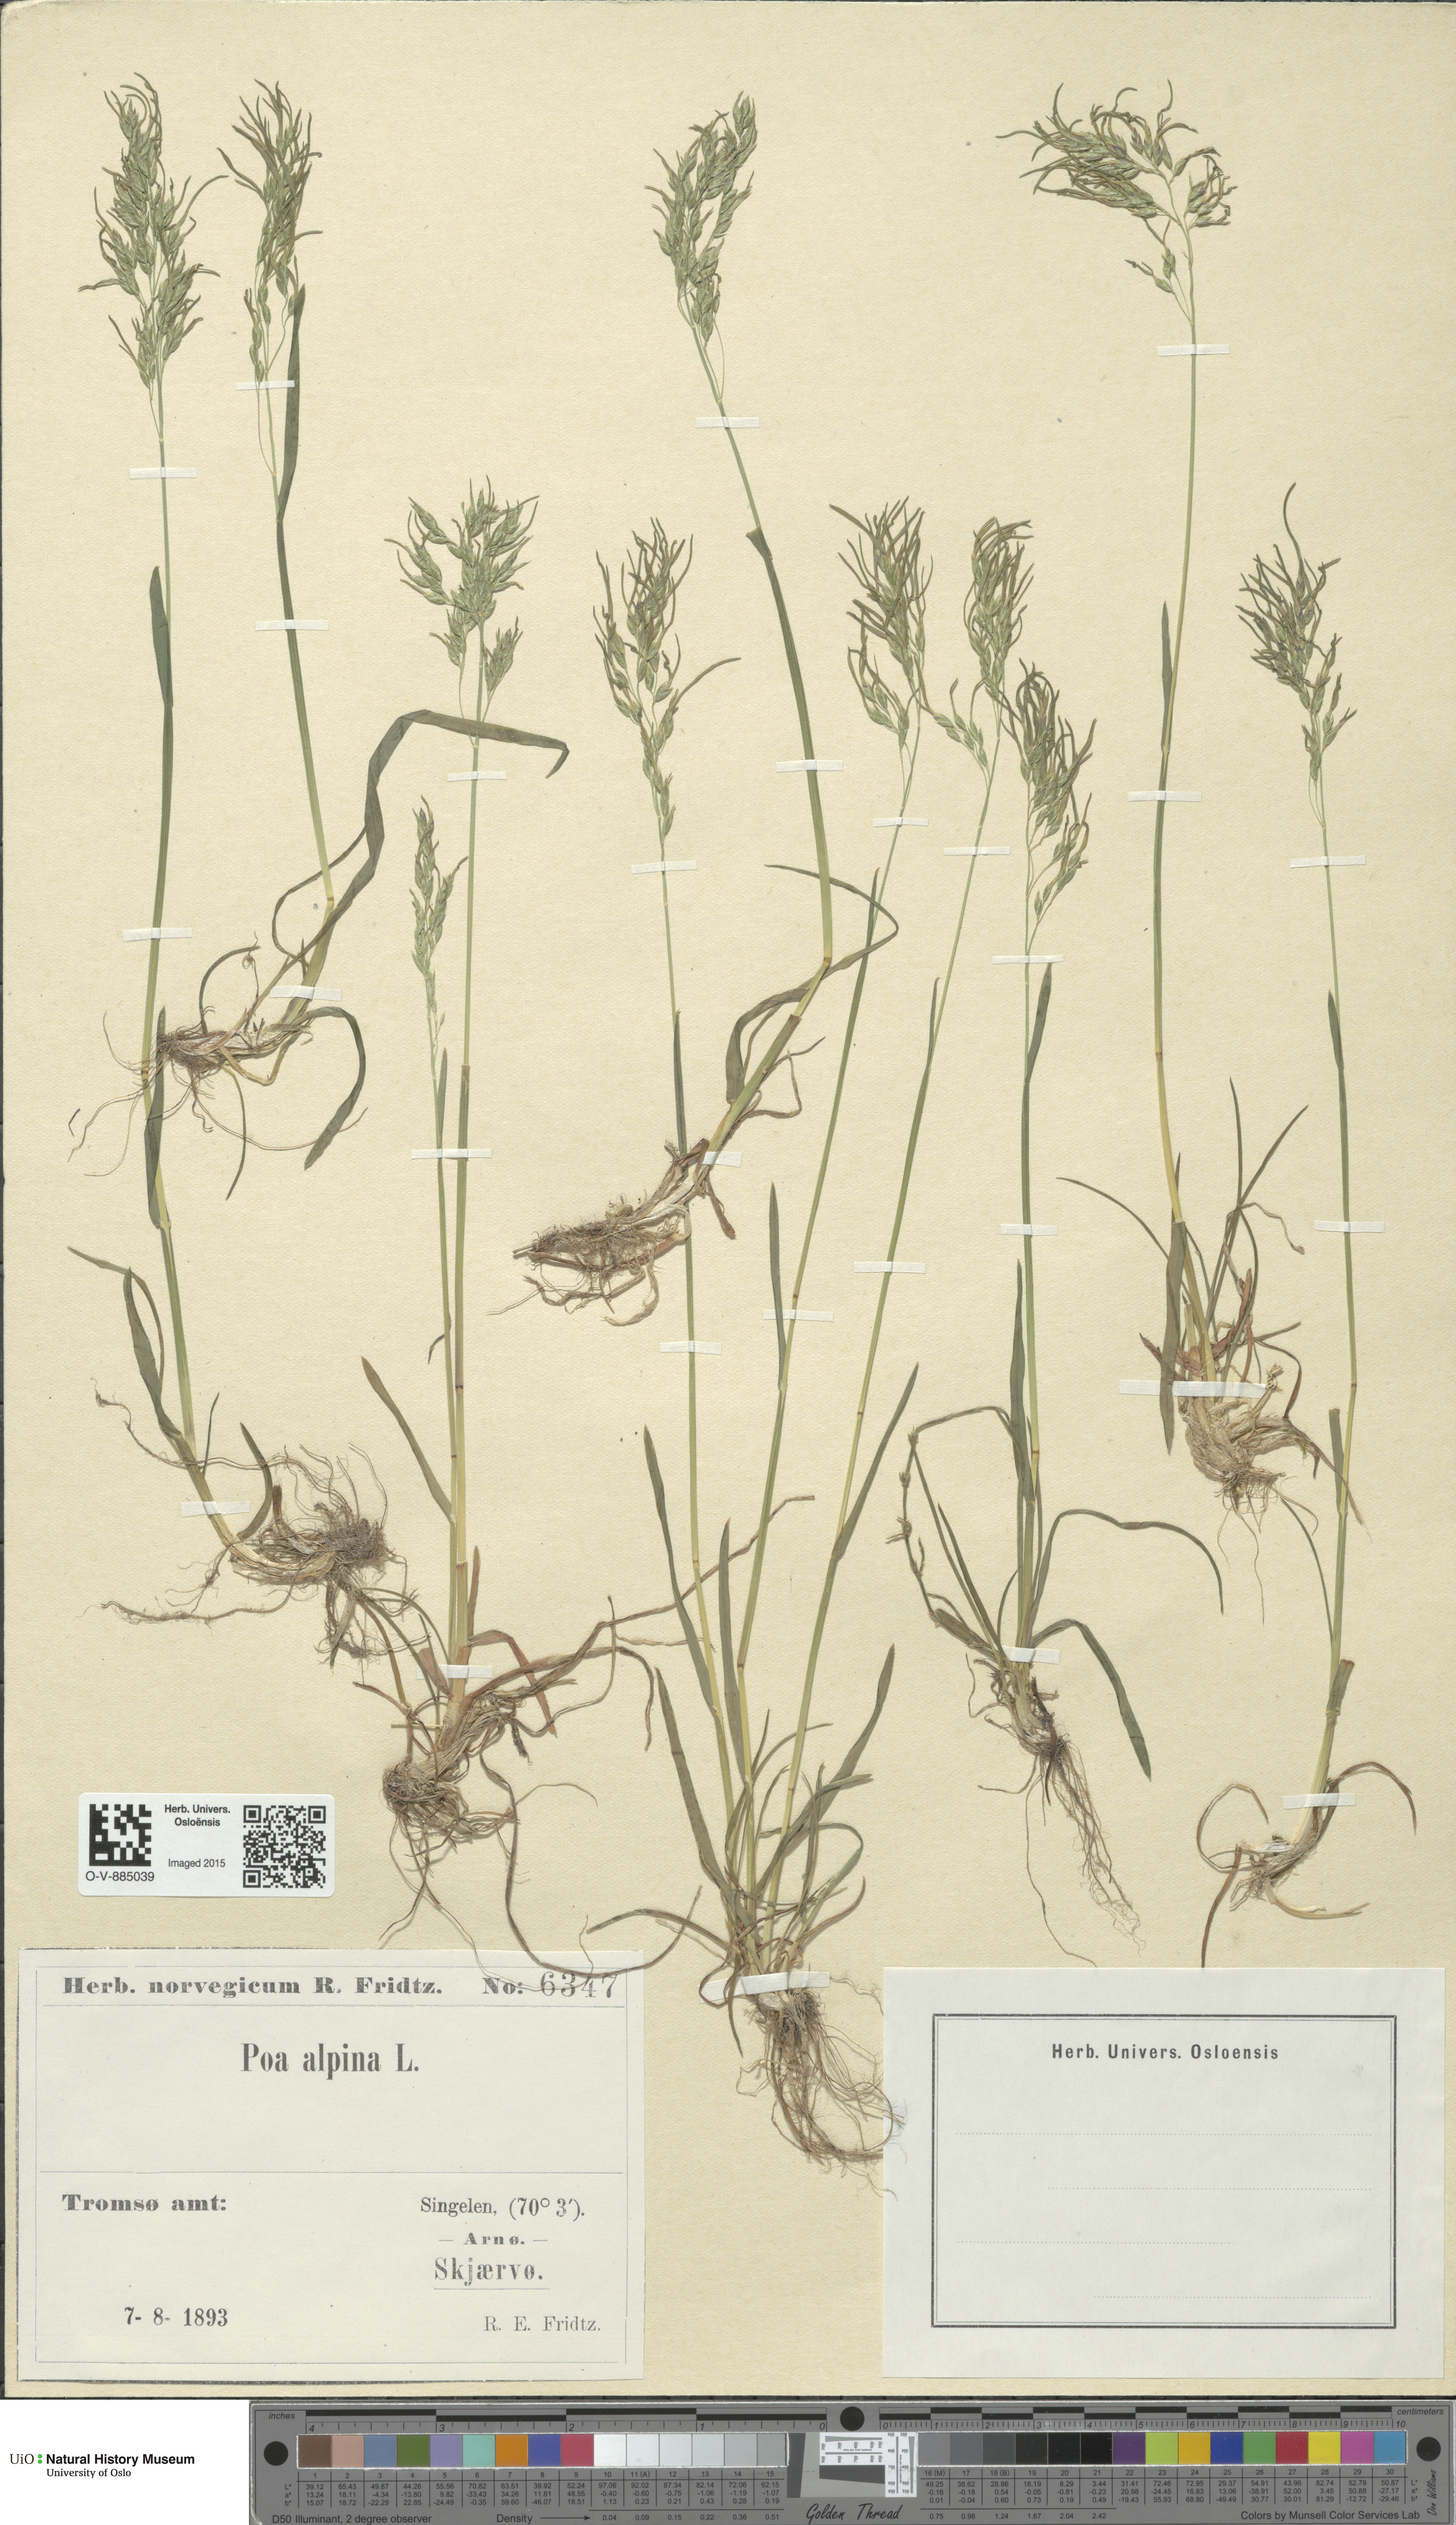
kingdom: Plantae
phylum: Tracheophyta
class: Liliopsida
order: Poales
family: Poaceae
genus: Poa
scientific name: Poa alpina
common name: Alpine bluegrass
